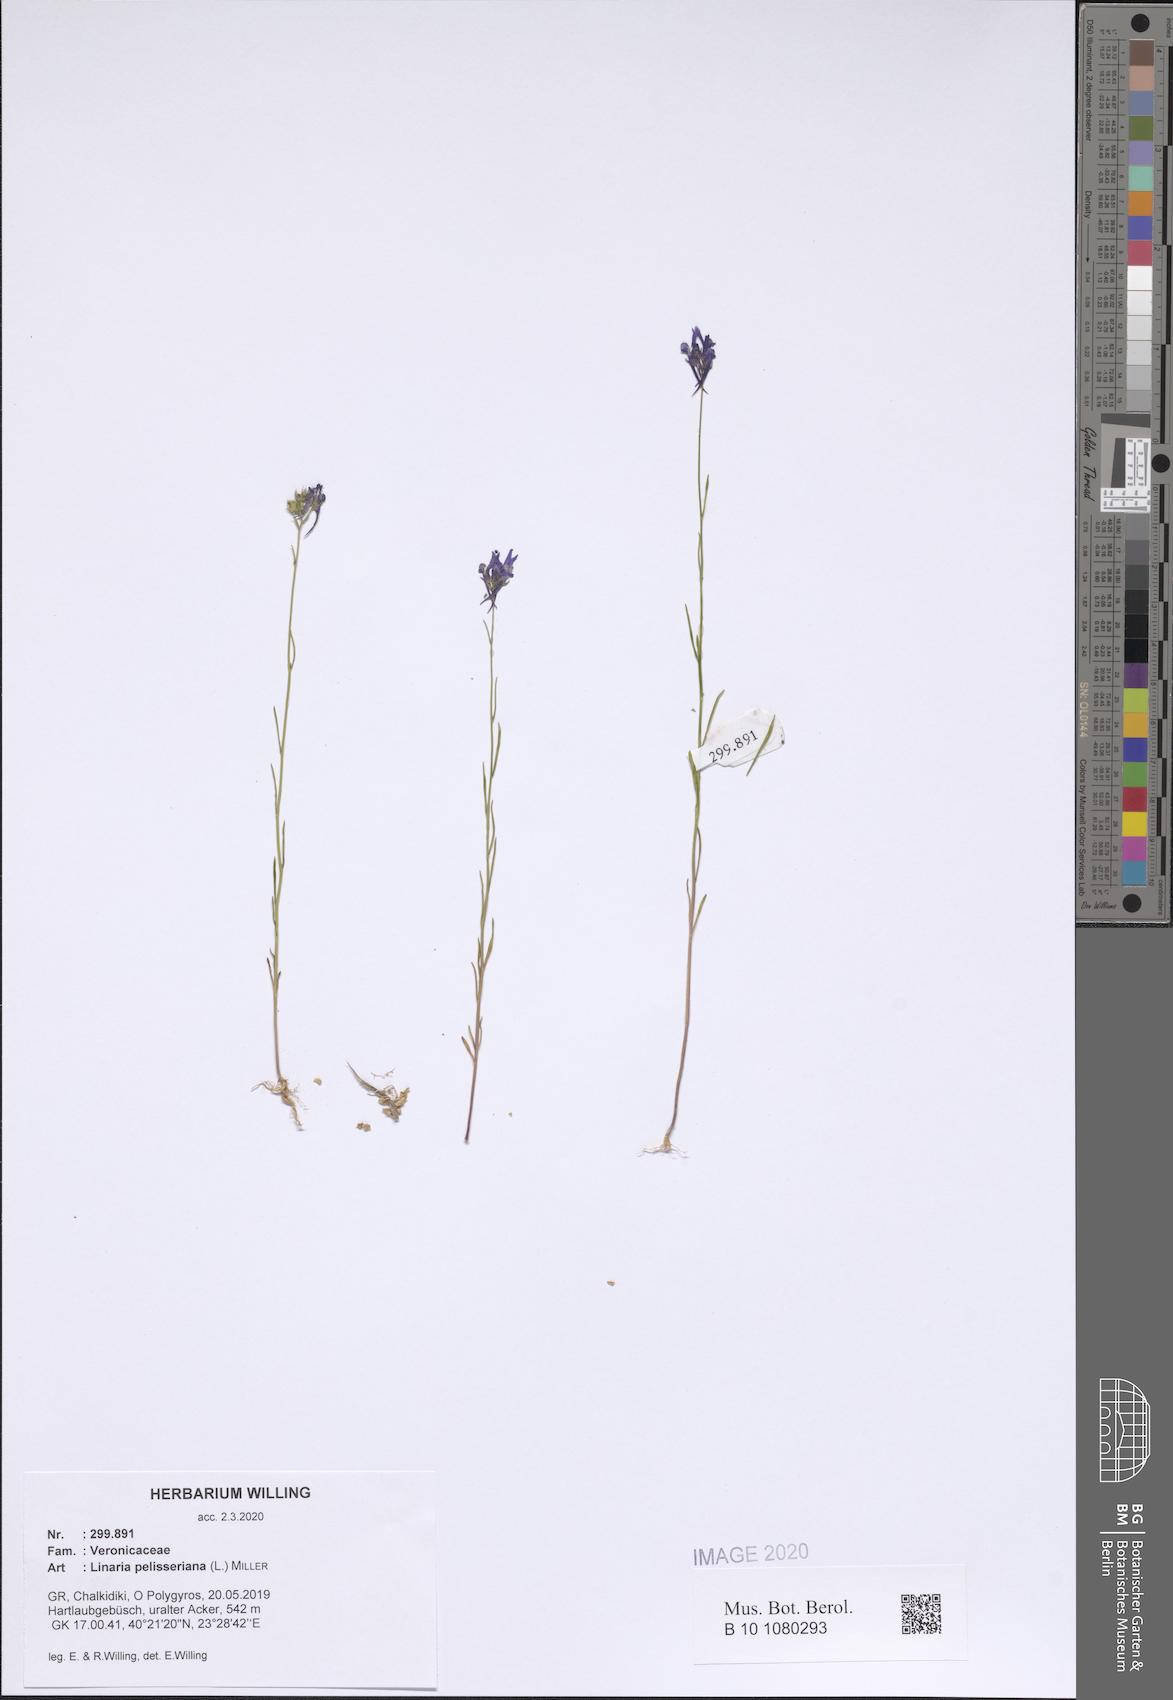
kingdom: Plantae
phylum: Tracheophyta
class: Magnoliopsida
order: Lamiales
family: Plantaginaceae
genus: Linaria
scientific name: Linaria pelisseriana
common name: Jersey toadflax
